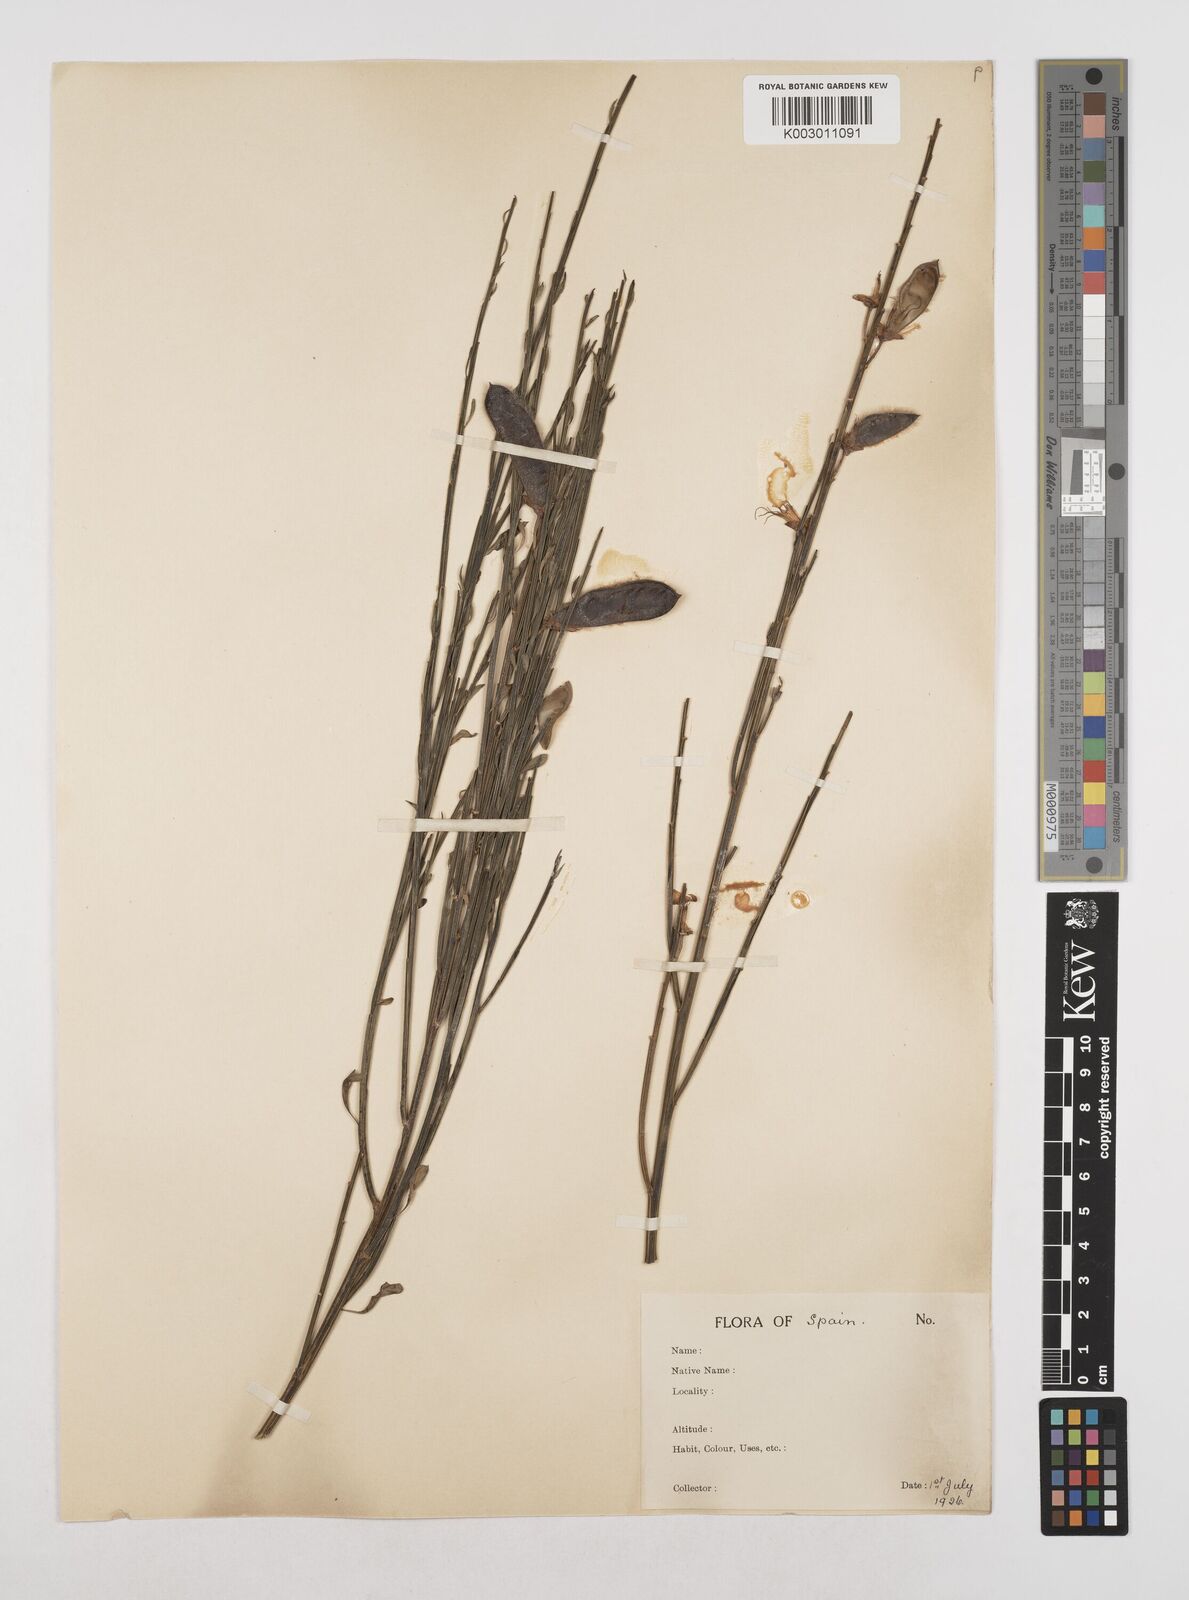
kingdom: Plantae
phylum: Tracheophyta
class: Magnoliopsida
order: Fabales
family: Fabaceae
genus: Cytisus
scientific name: Cytisus scoparius
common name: Scotch broom
